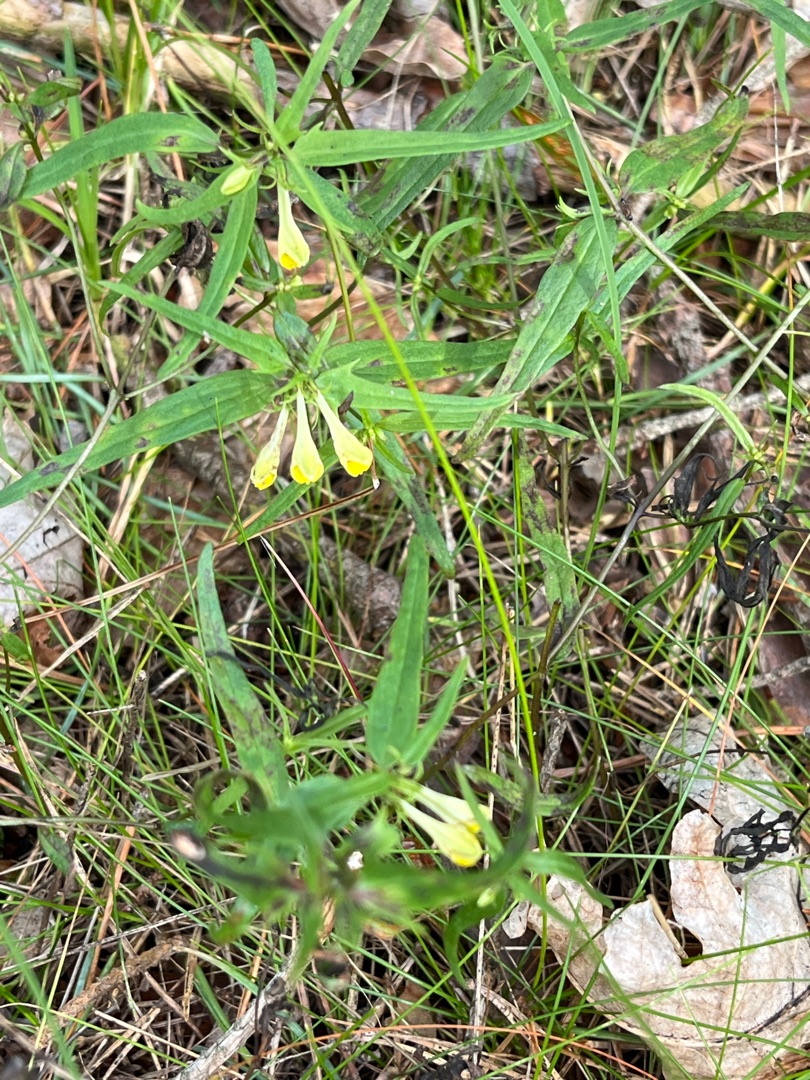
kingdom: Plantae
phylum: Tracheophyta
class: Magnoliopsida
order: Lamiales
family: Orobanchaceae
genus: Melampyrum
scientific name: Melampyrum pratense
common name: Almindelig kohvede
